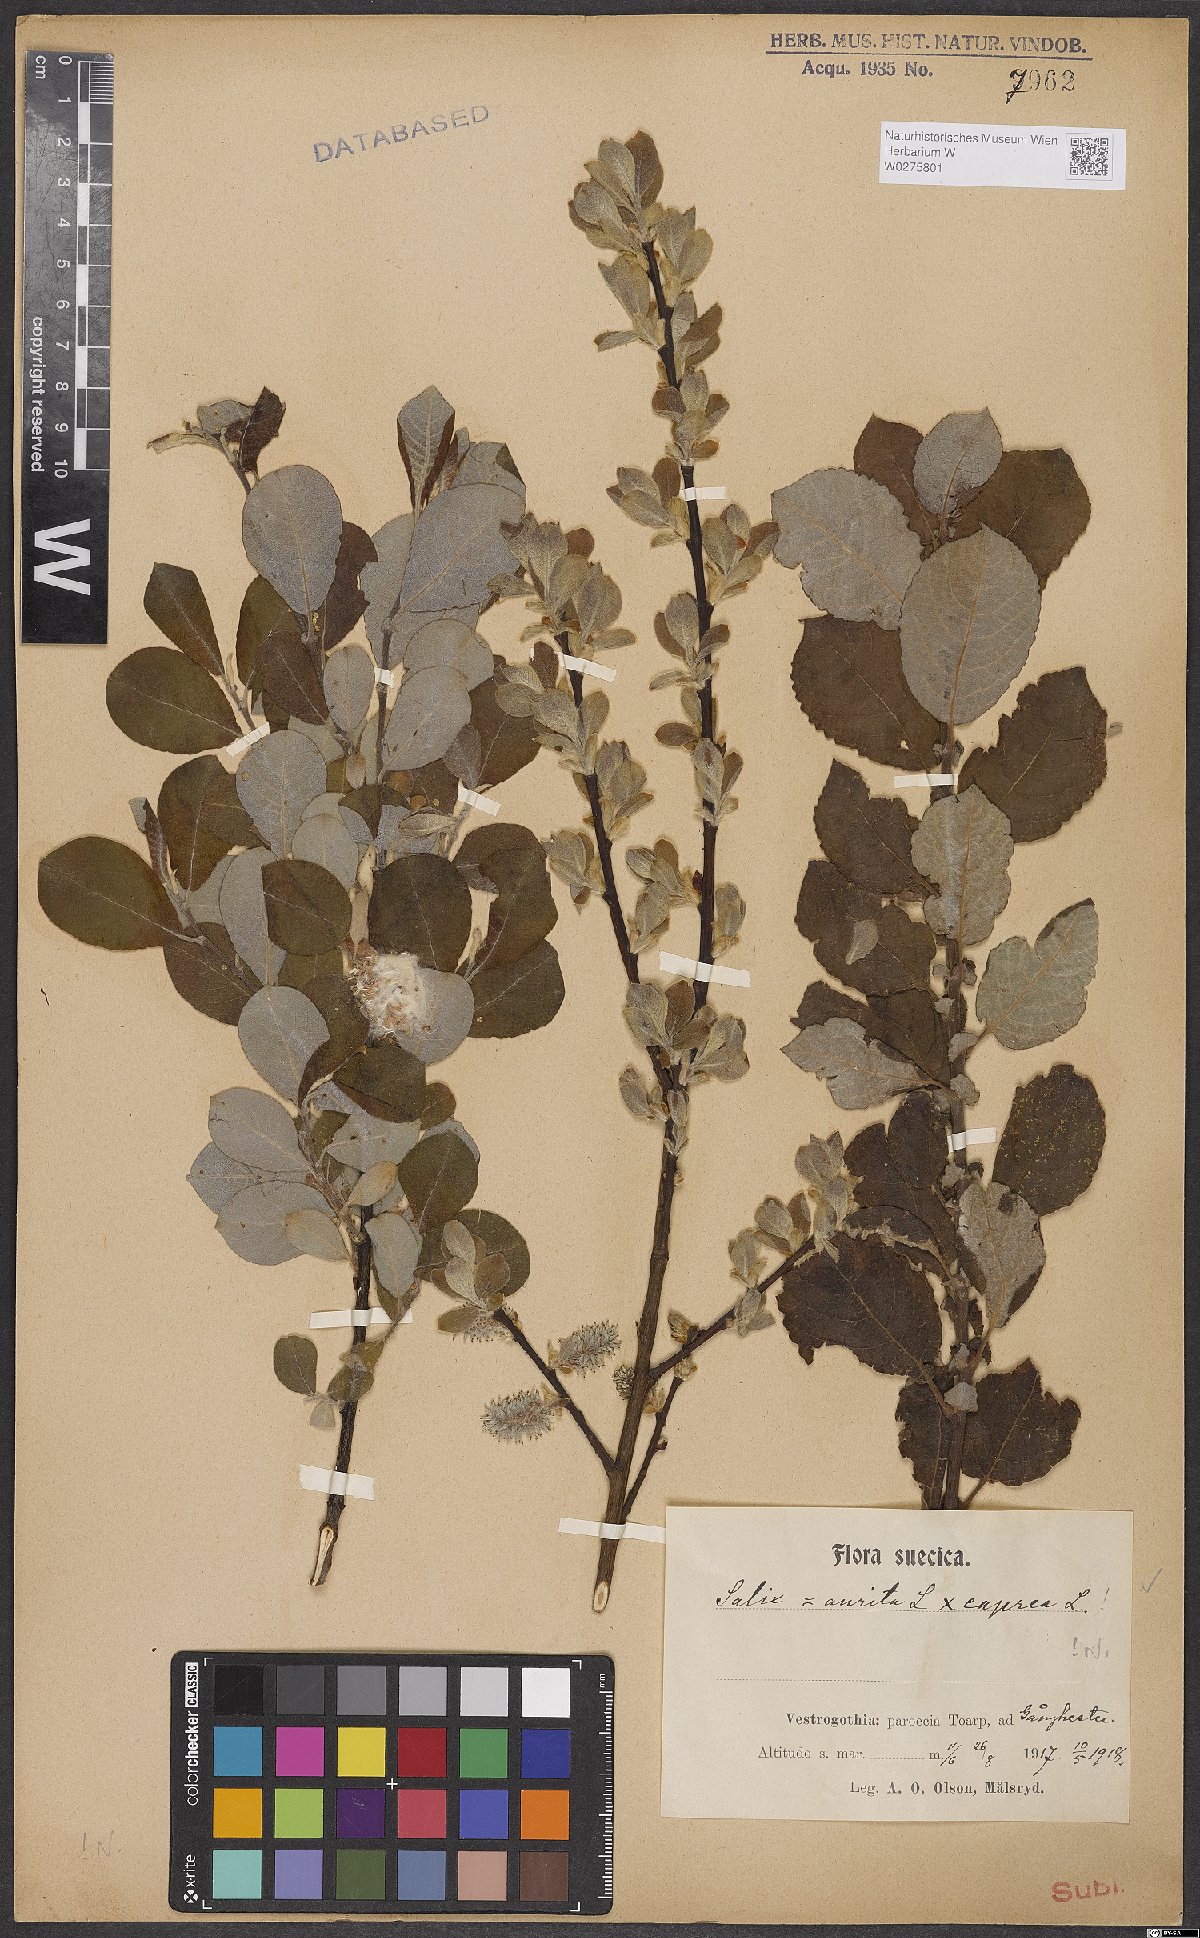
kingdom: Plantae
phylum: Tracheophyta
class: Magnoliopsida
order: Malpighiales
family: Salicaceae
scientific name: Salicaceae
